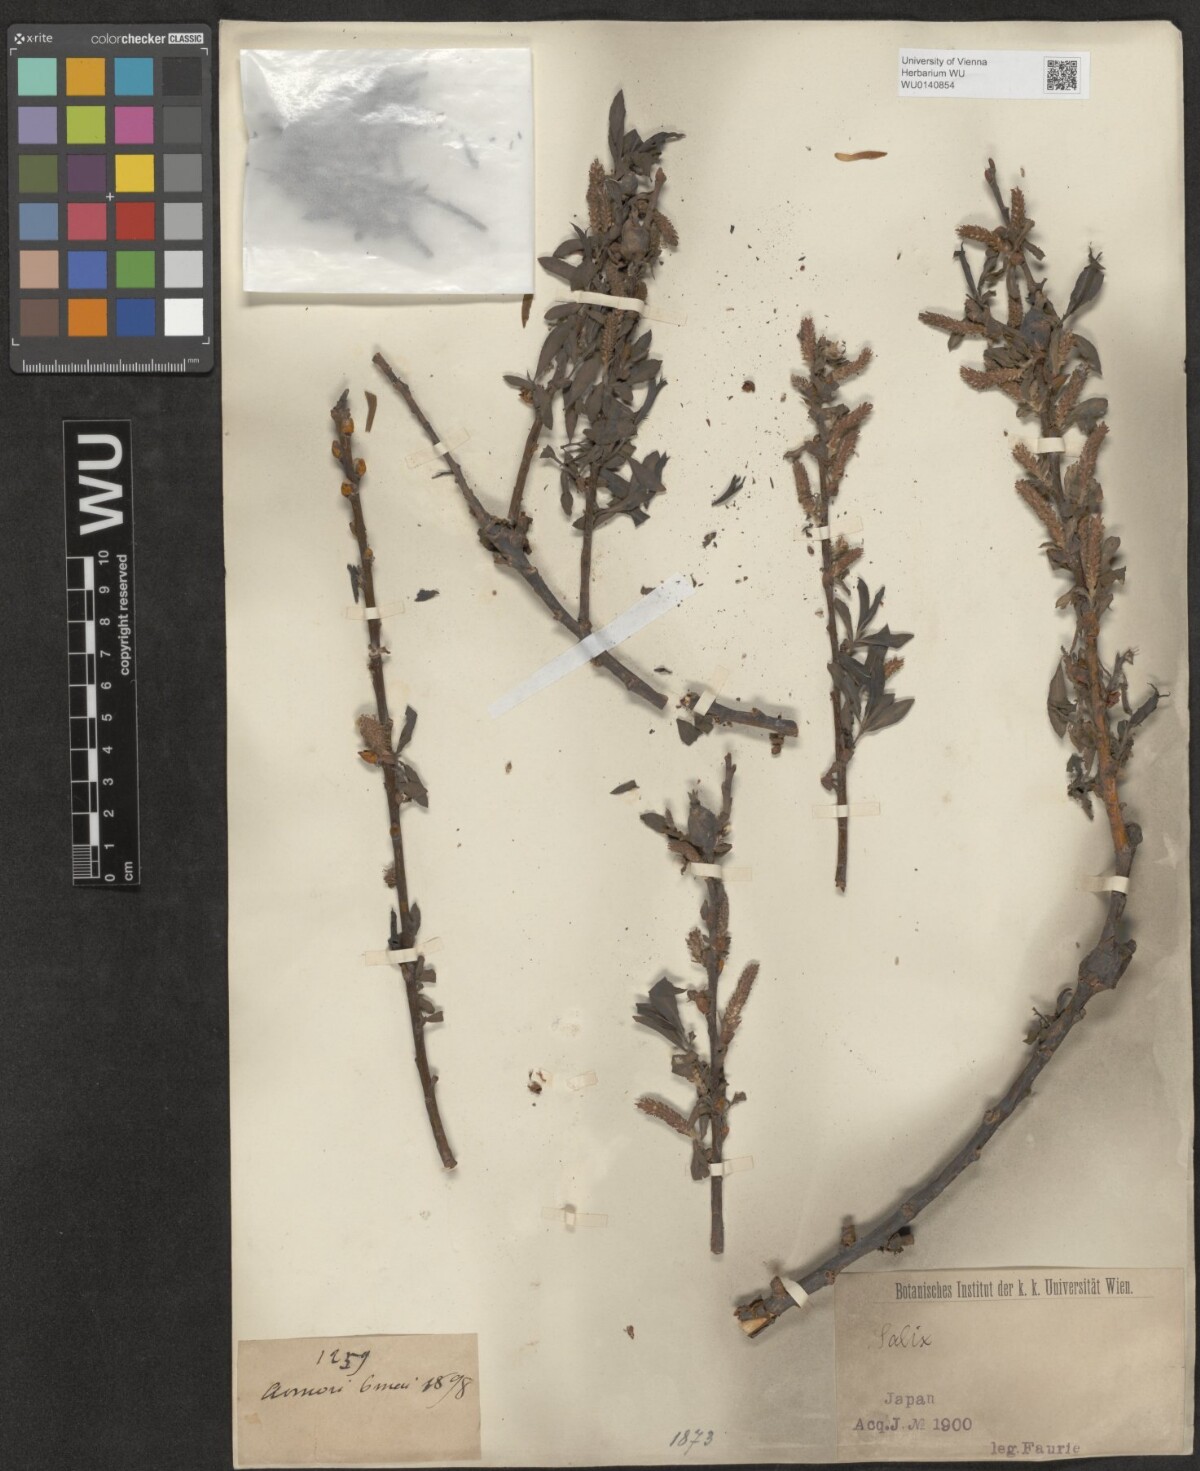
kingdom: Plantae
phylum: Tracheophyta
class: Magnoliopsida
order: Malpighiales
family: Salicaceae
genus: Salix
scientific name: Salix
